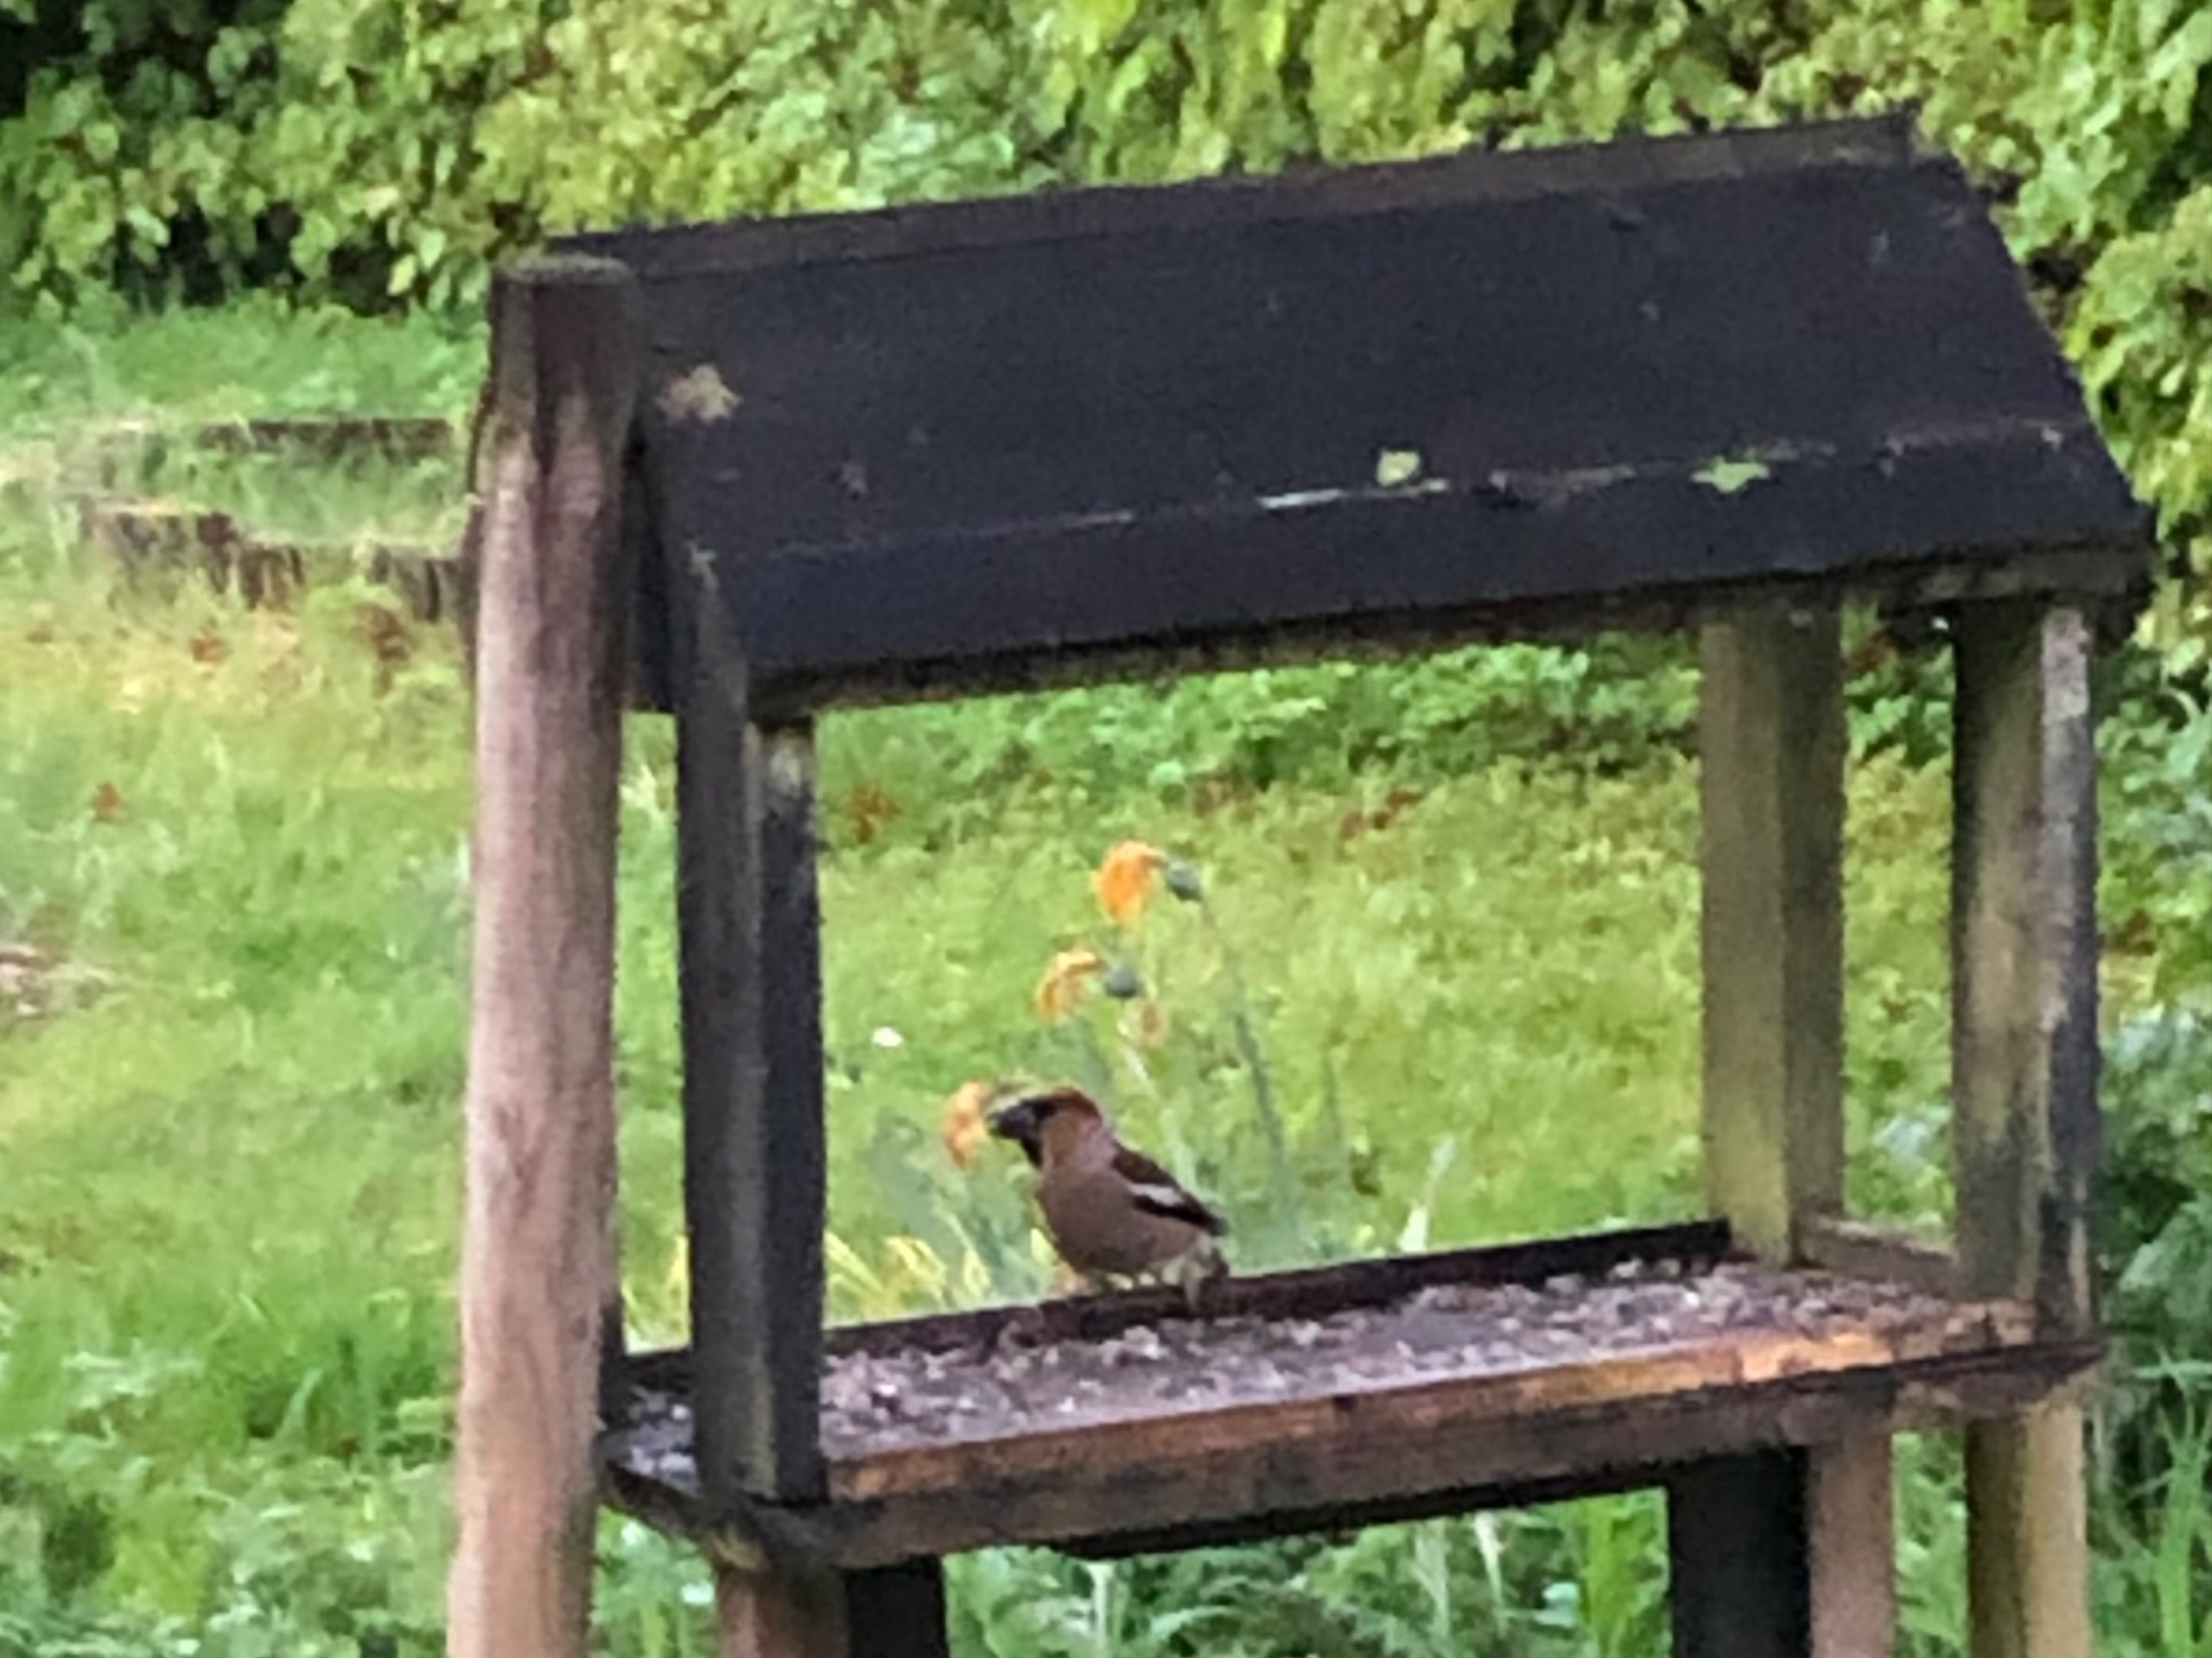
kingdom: Animalia
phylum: Chordata
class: Aves
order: Passeriformes
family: Fringillidae
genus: Coccothraustes
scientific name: Coccothraustes coccothraustes
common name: Kernebider
